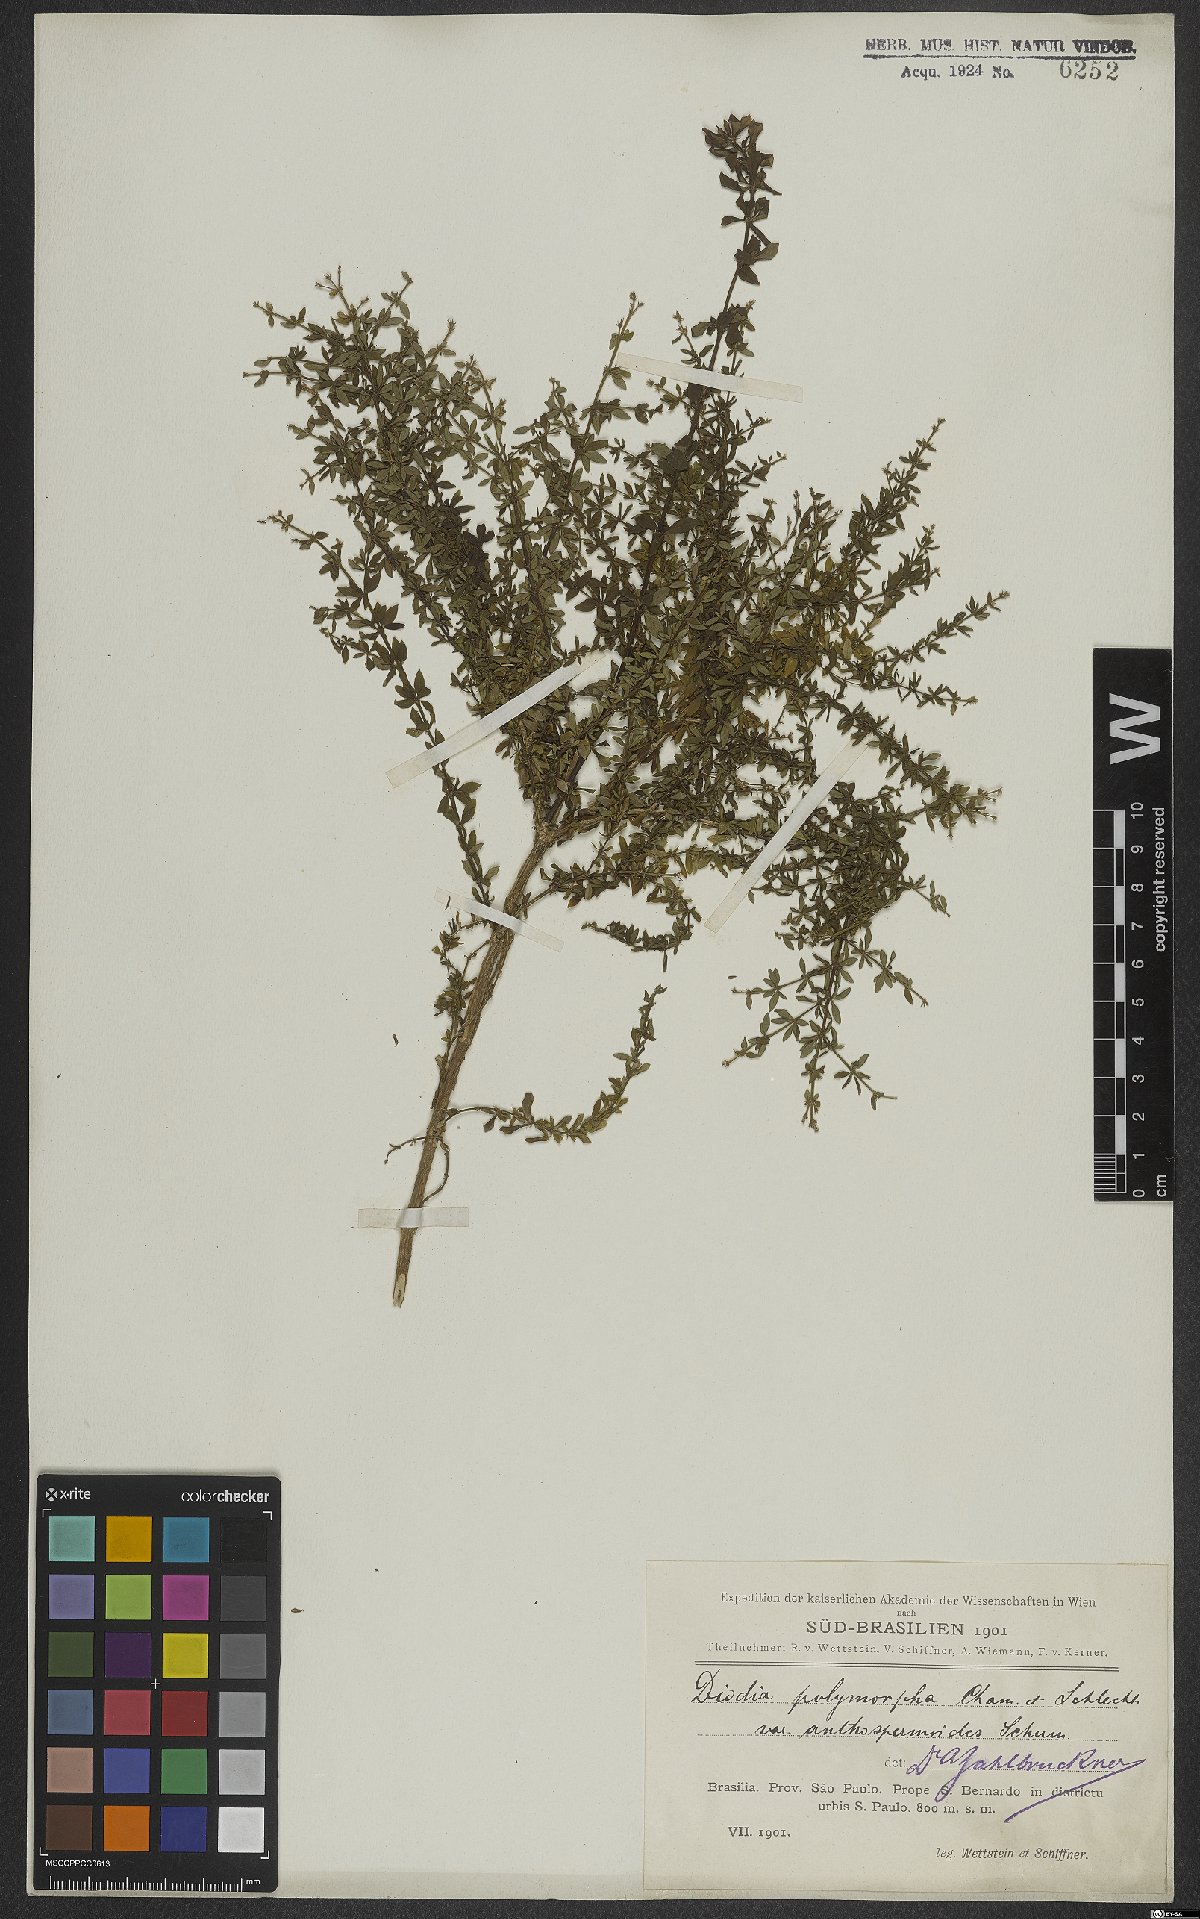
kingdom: Plantae
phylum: Tracheophyta
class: Magnoliopsida
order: Gentianales
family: Rubiaceae
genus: Galianthe
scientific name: Galianthe brasiliensis
